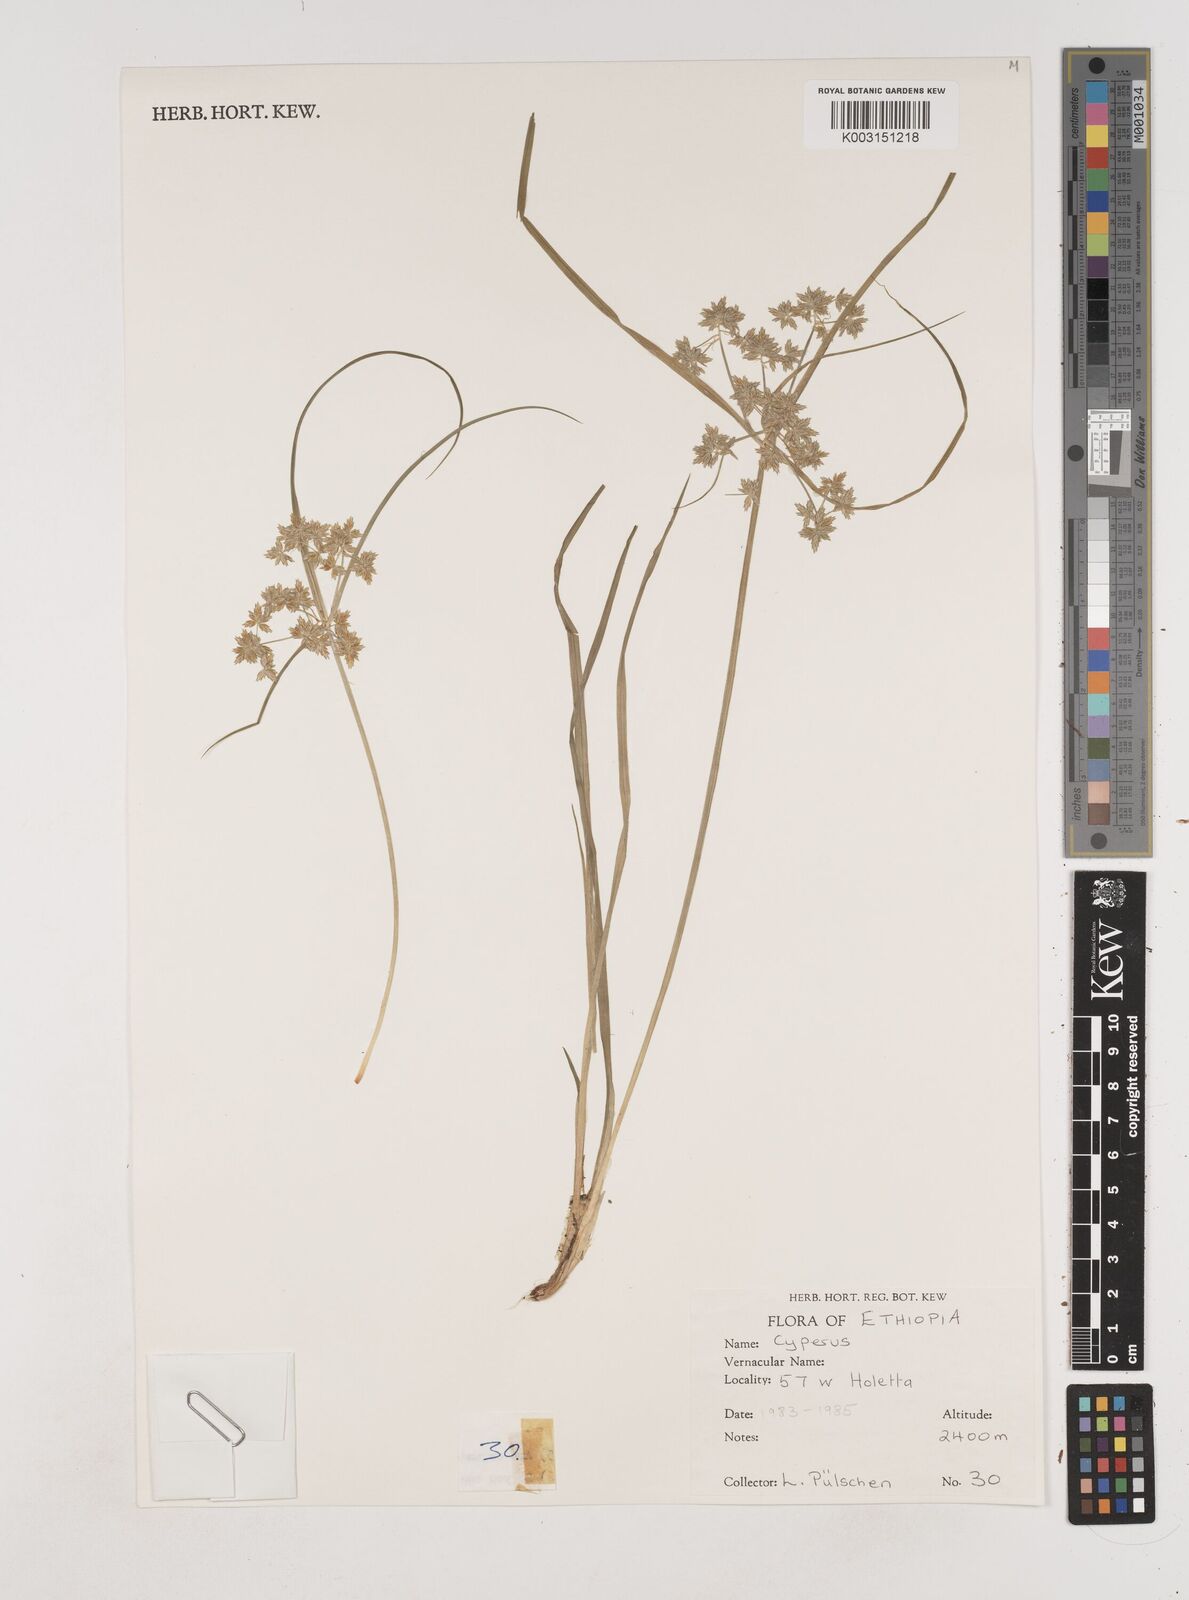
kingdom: Plantae
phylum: Tracheophyta
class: Liliopsida
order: Poales
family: Cyperaceae
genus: Cyperus
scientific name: Cyperus
